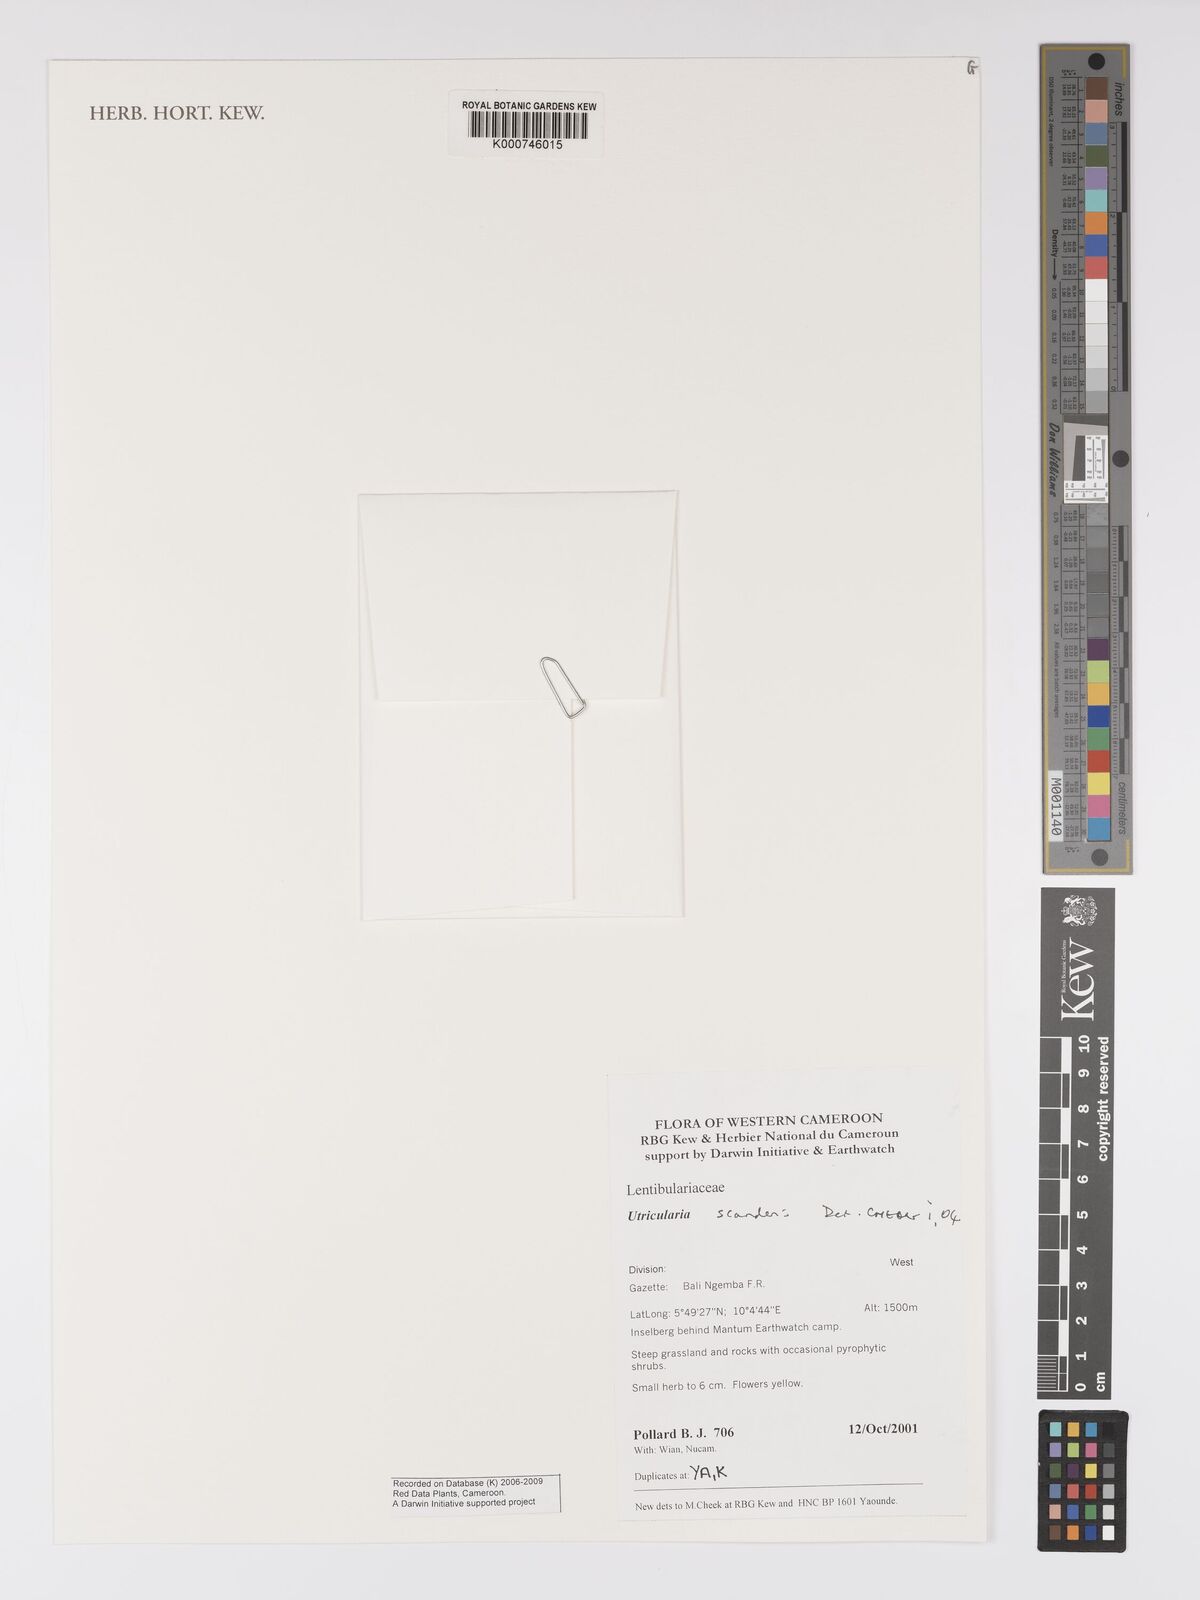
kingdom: Plantae
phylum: Tracheophyta
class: Magnoliopsida
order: Lamiales
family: Lentibulariaceae
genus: Utricularia
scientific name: Utricularia scandens
